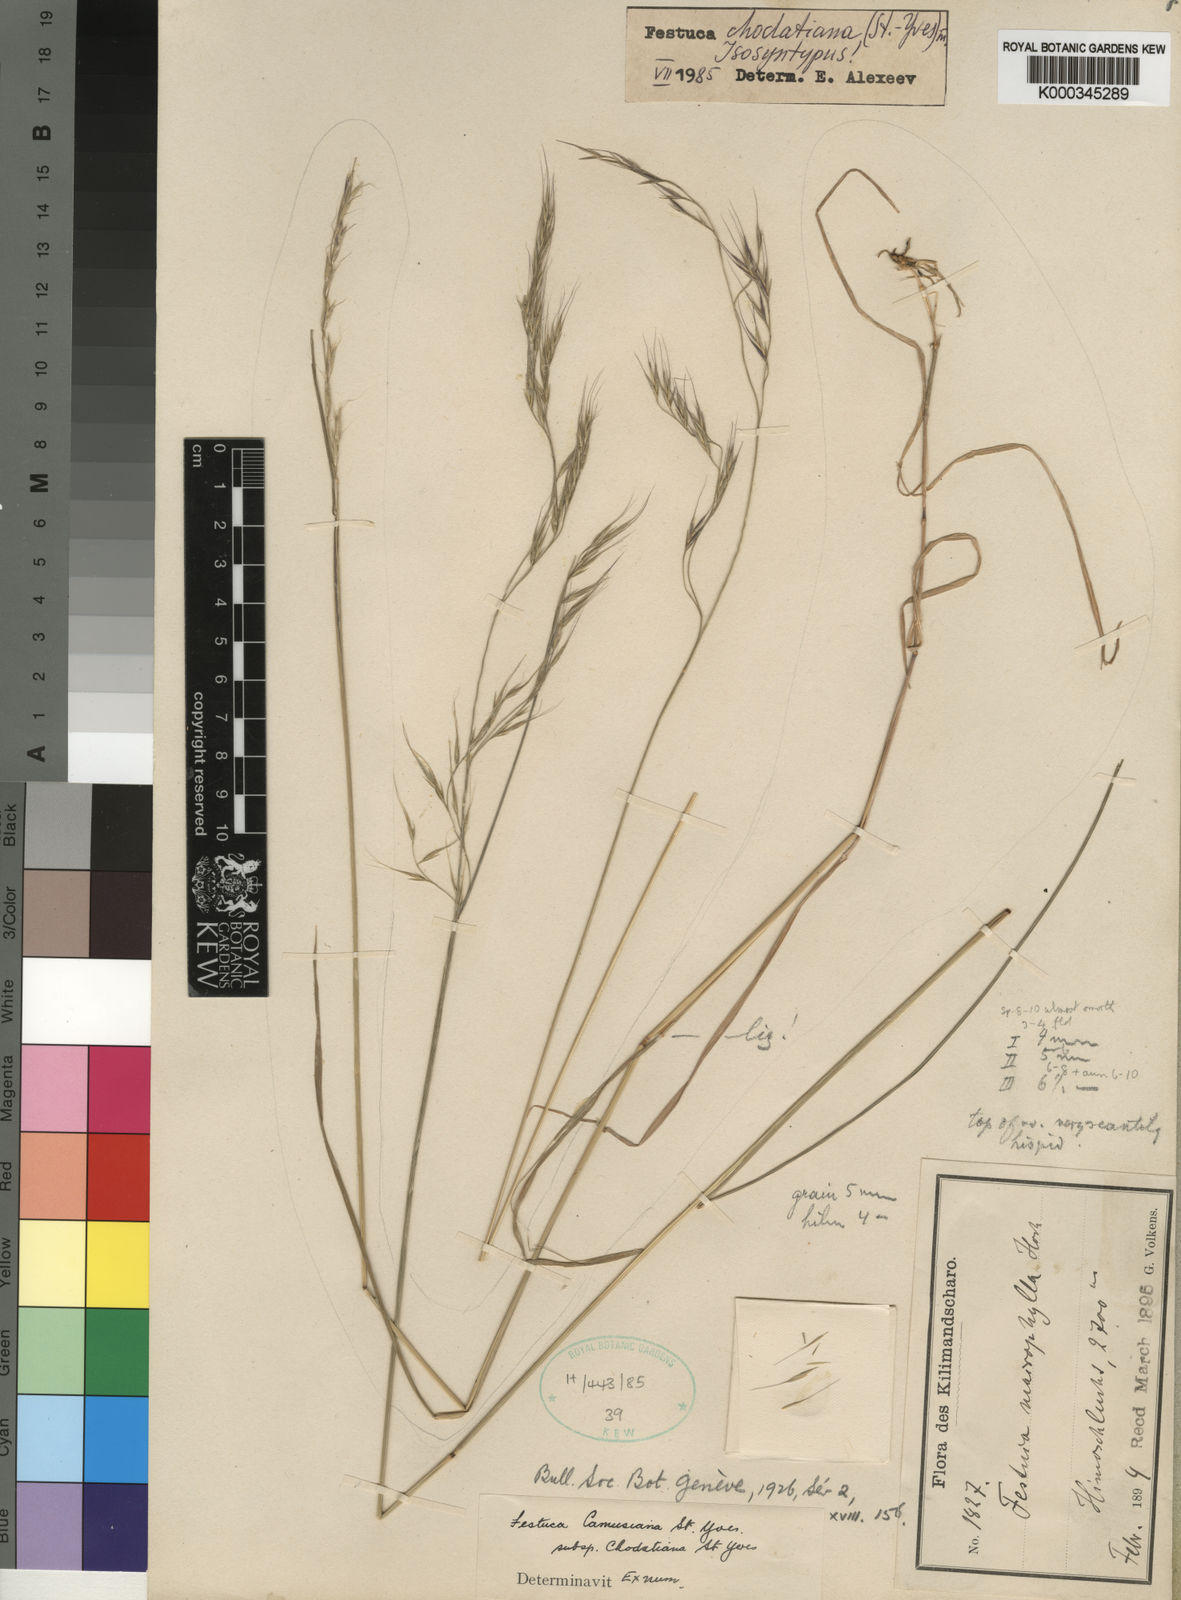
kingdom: Plantae
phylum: Tracheophyta
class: Liliopsida
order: Poales
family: Poaceae
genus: Festuca
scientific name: Festuca chodatiana
